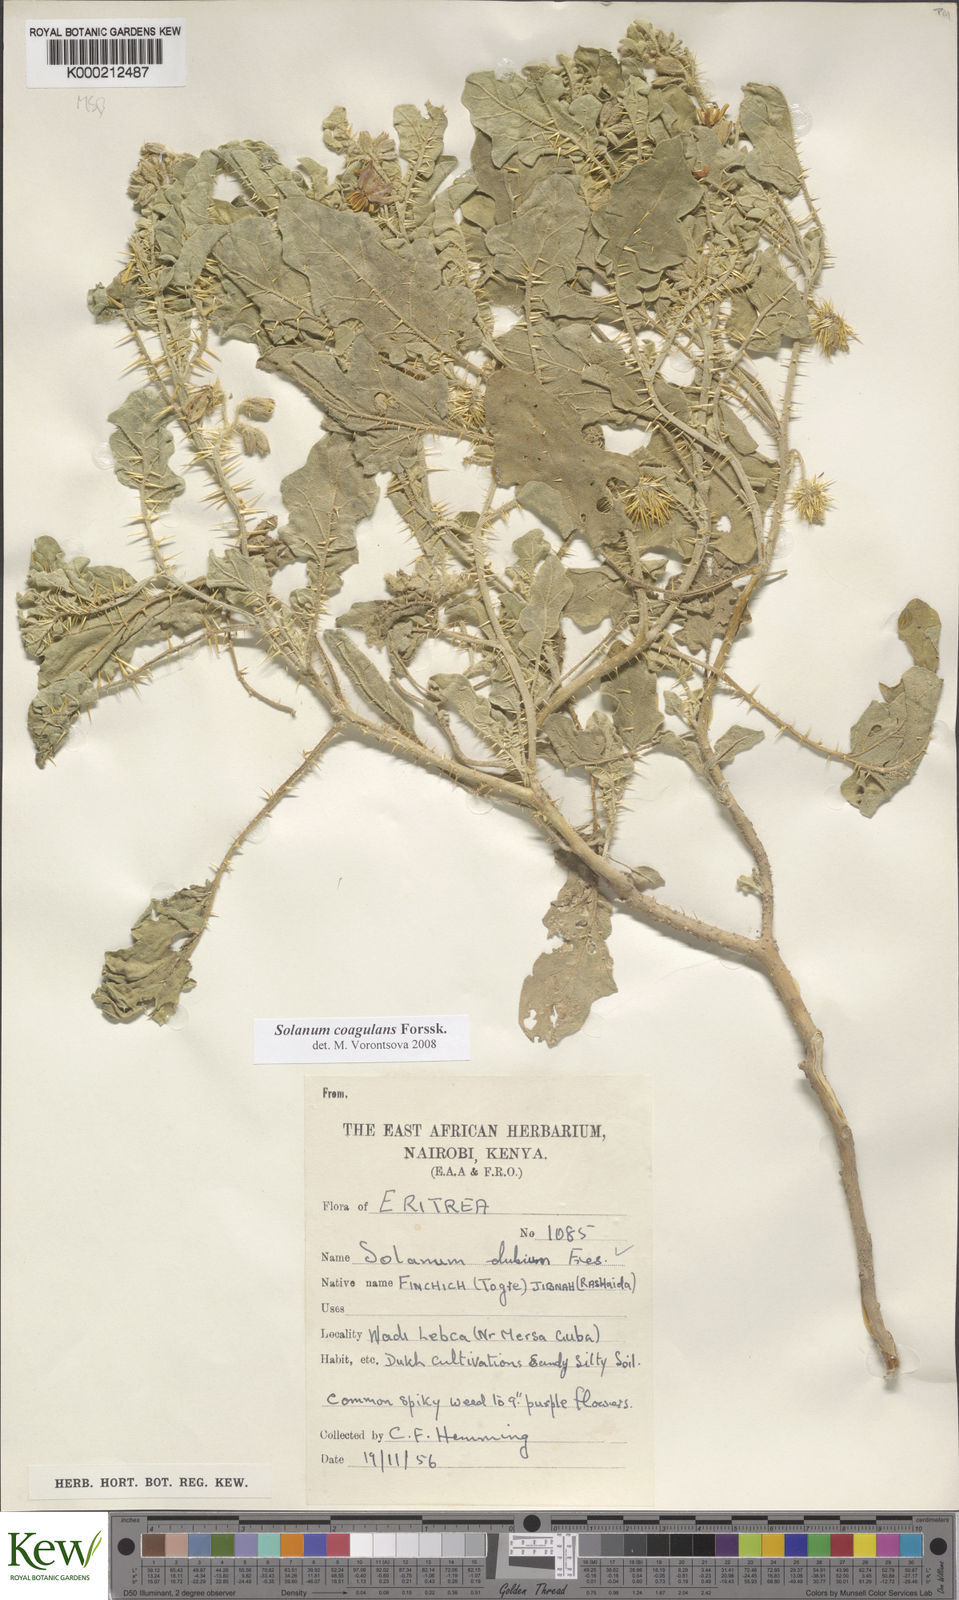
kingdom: Plantae
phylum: Tracheophyta
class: Magnoliopsida
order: Solanales
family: Solanaceae
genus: Solanum
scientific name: Solanum coagulans
